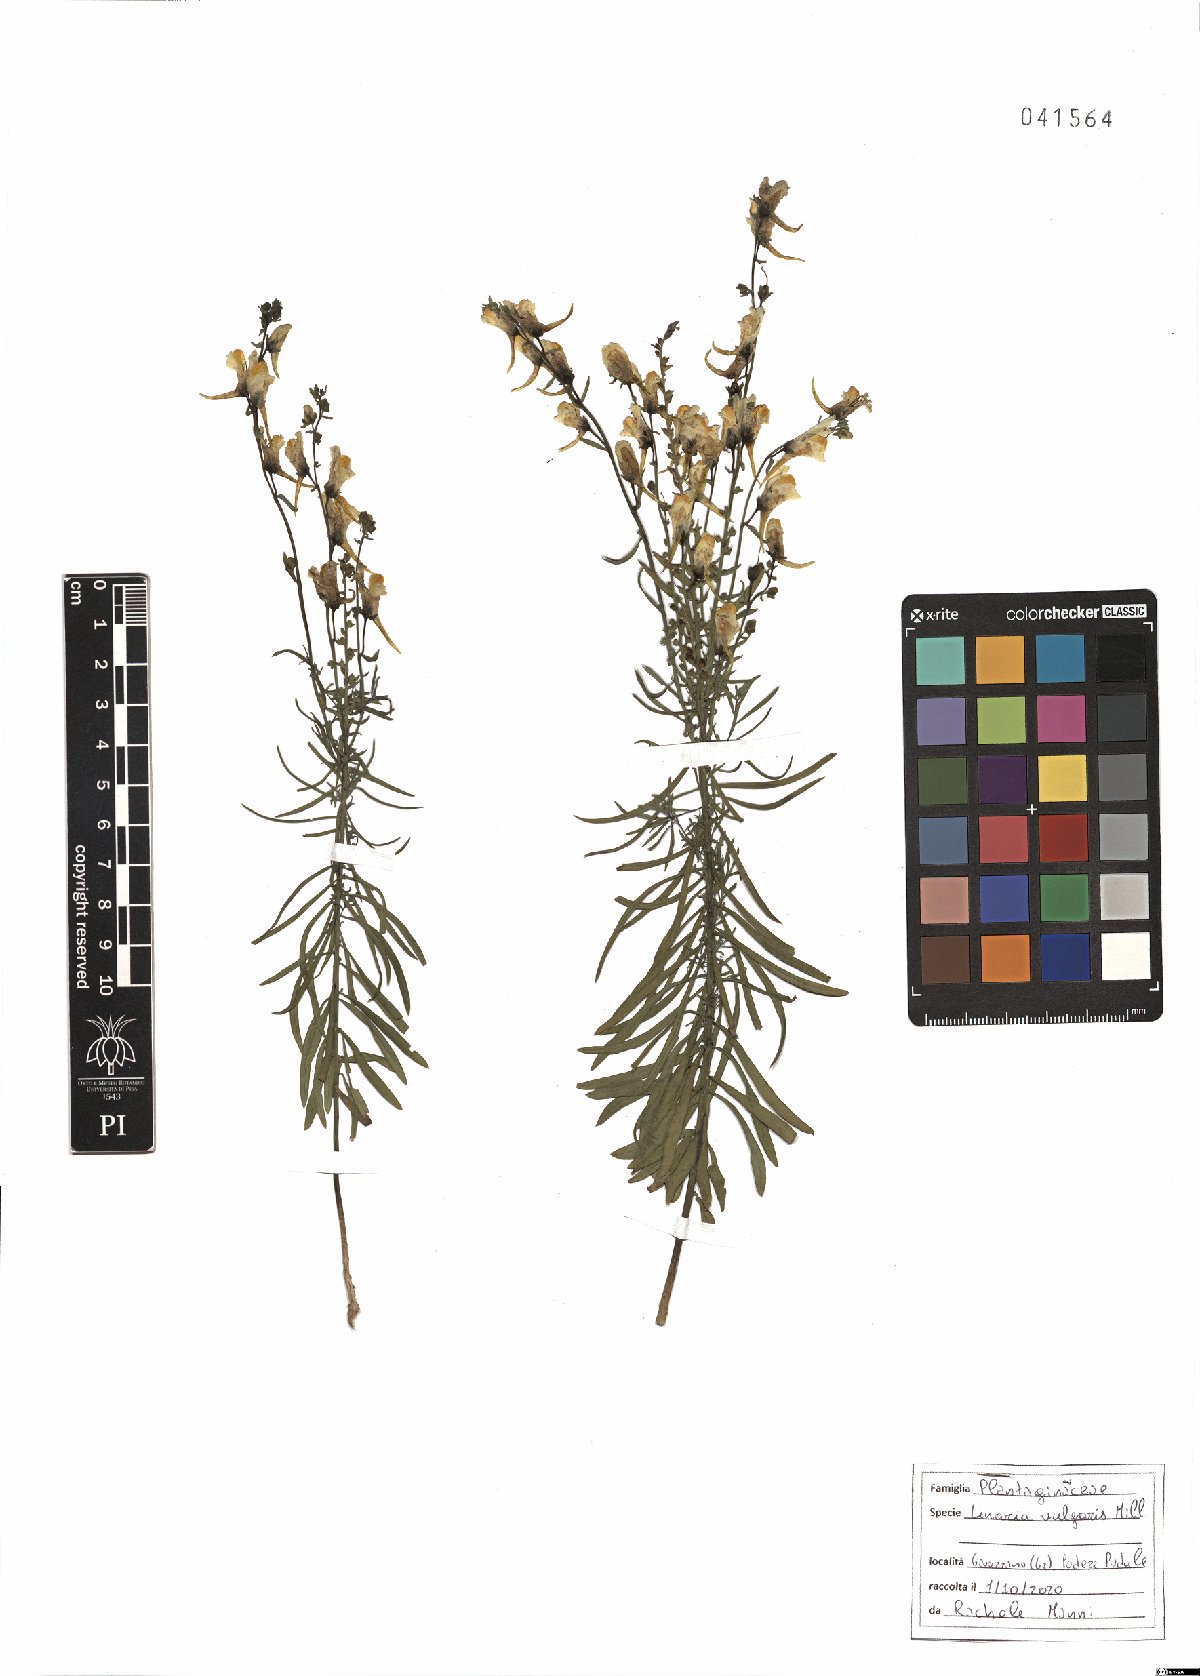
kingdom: Plantae
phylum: Tracheophyta
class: Magnoliopsida
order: Lamiales
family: Plantaginaceae
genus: Linaria
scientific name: Linaria vulgaris
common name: Butter and eggs
